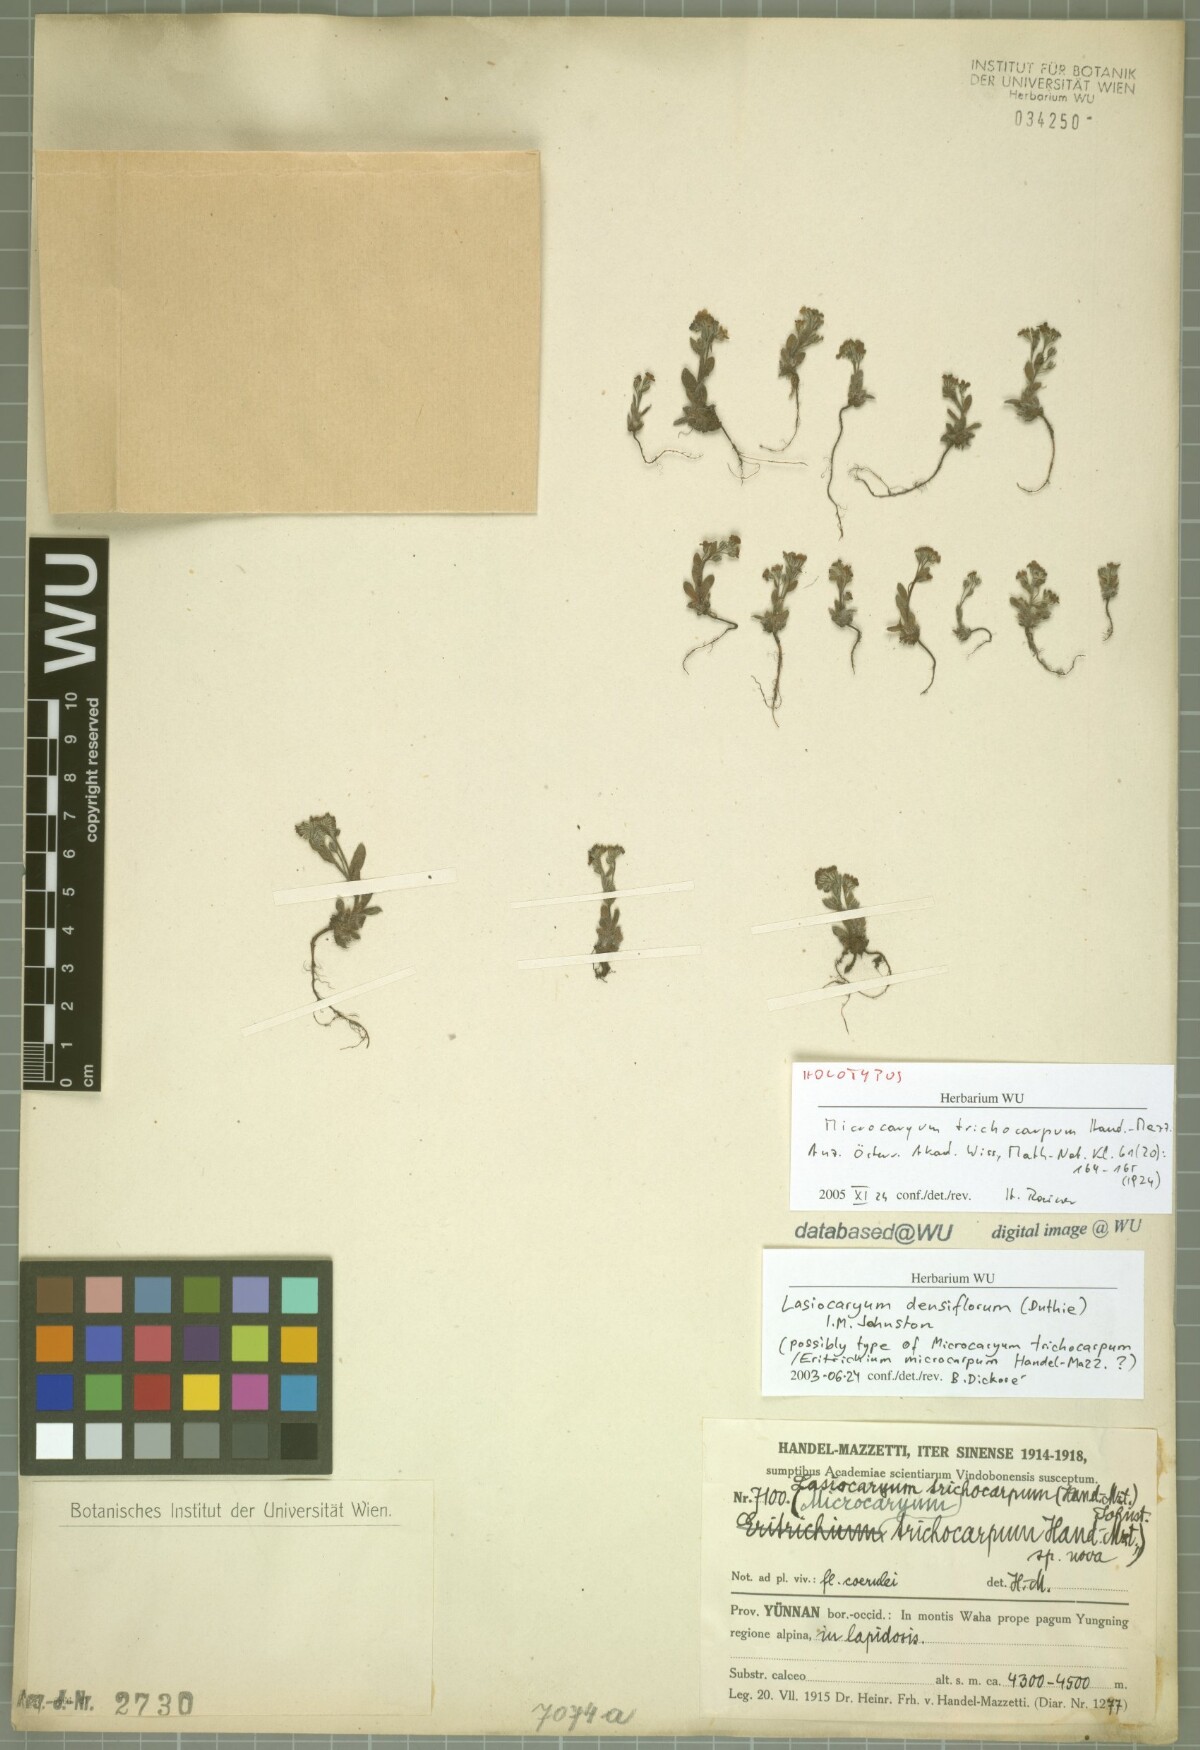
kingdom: Plantae
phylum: Tracheophyta
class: Magnoliopsida
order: Boraginales
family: Boraginaceae
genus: Lasiocaryum
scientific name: Lasiocaryum trichocarpum
